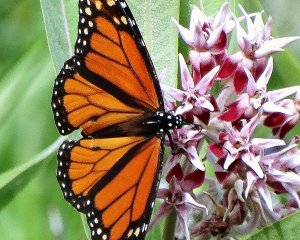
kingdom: Animalia
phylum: Arthropoda
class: Insecta
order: Lepidoptera
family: Nymphalidae
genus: Danaus
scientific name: Danaus plexippus
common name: Monarch
